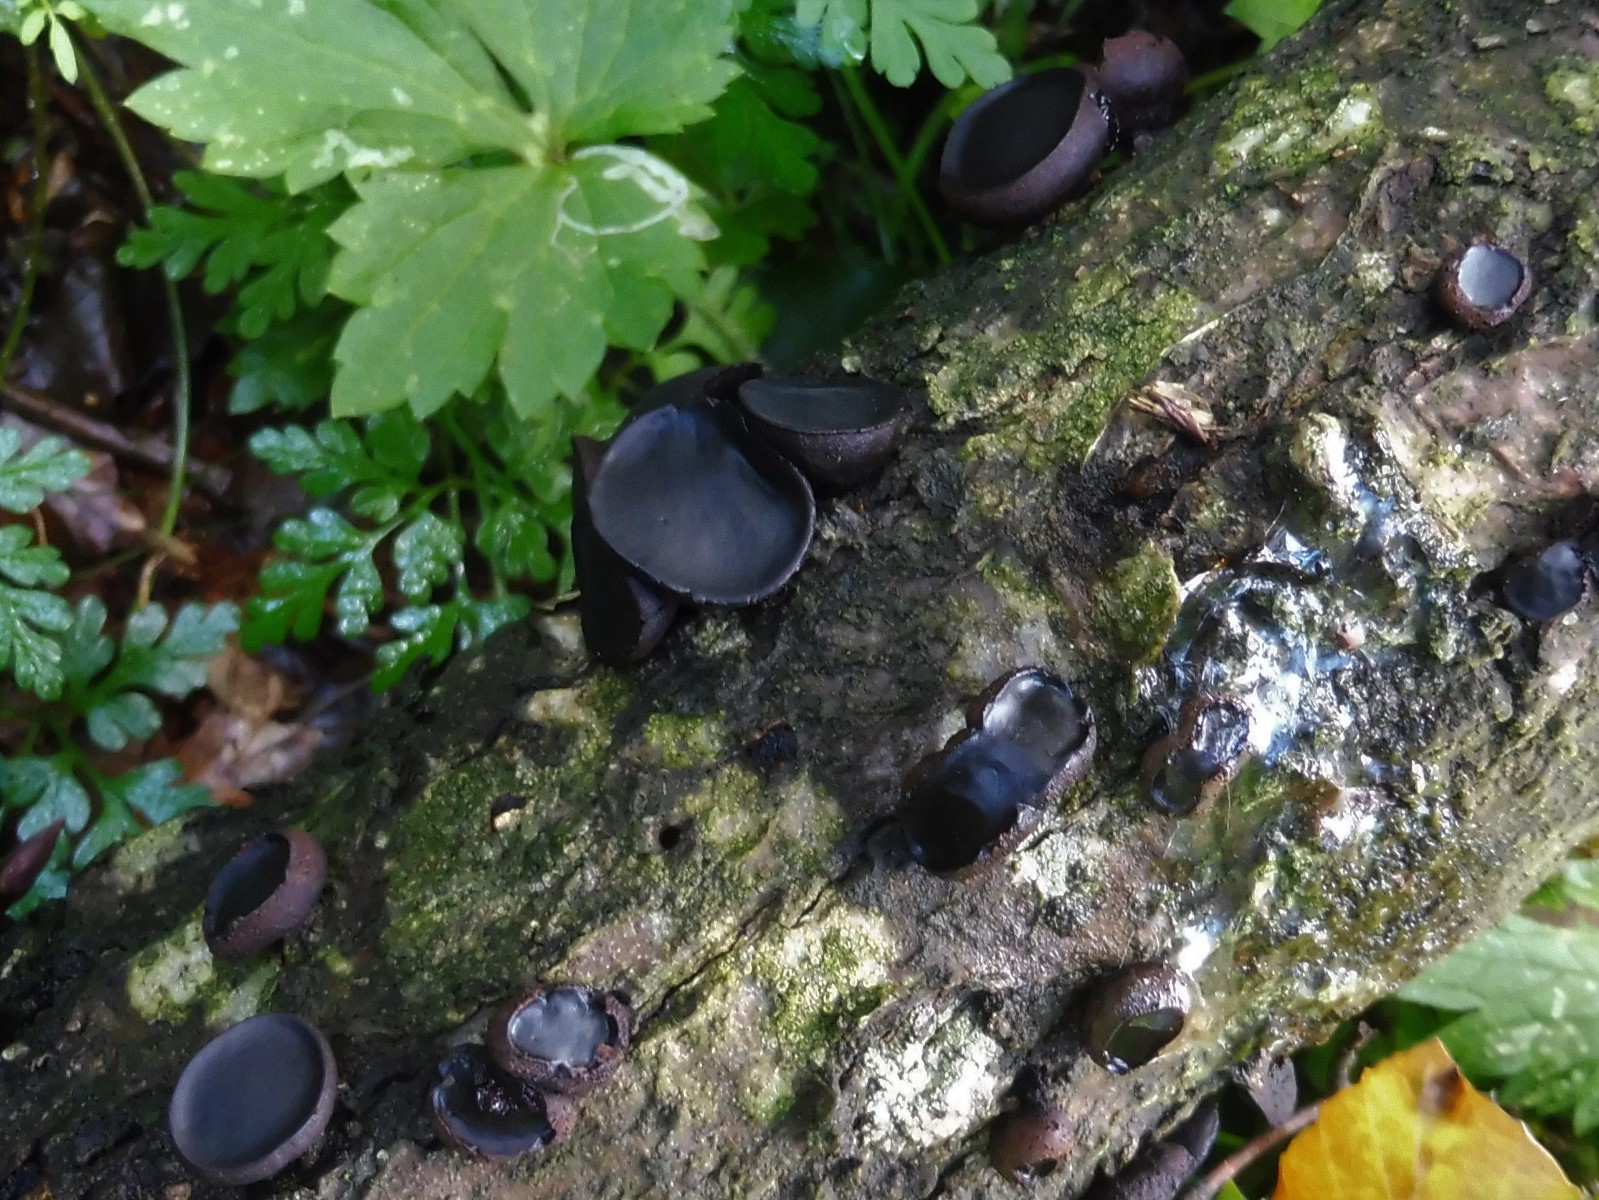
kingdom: Fungi
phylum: Ascomycota
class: Leotiomycetes
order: Phacidiales
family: Phacidiaceae
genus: Bulgaria
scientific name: Bulgaria inquinans
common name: afsmittende topsvamp
